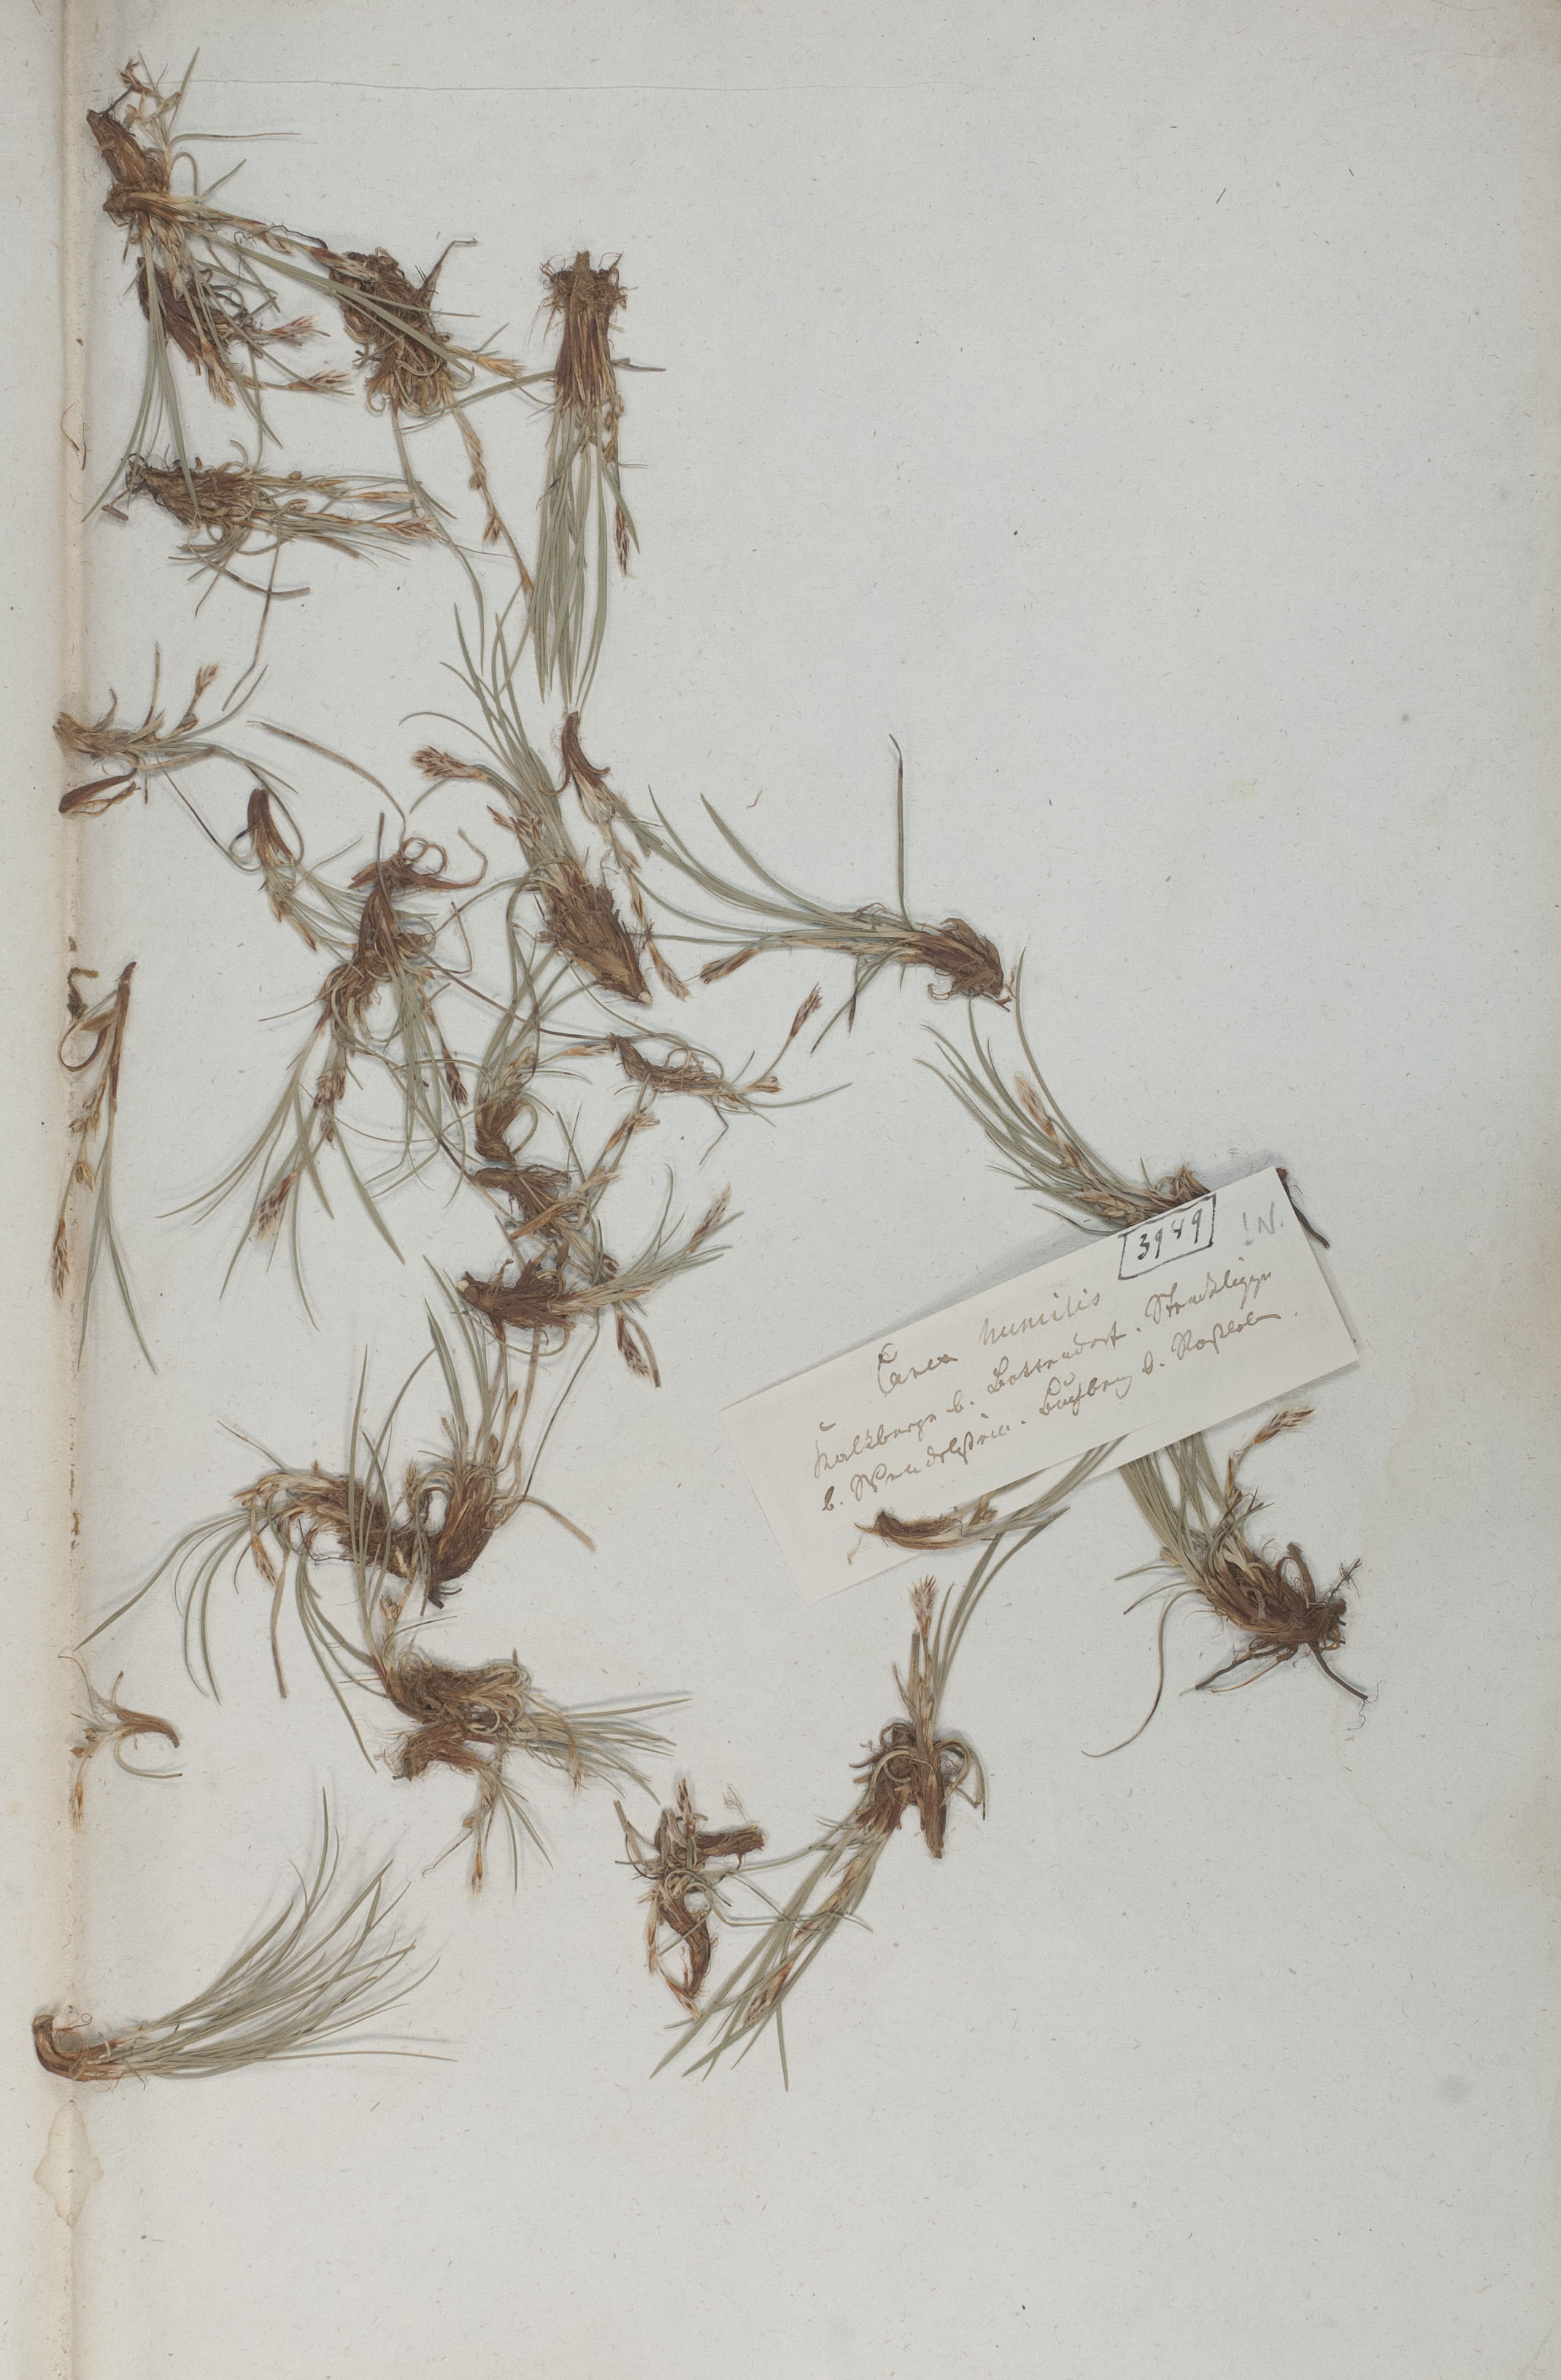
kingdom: Plantae
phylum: Tracheophyta
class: Liliopsida
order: Poales
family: Cyperaceae
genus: Carex
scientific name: Carex humilis
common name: Dwarf sedge
